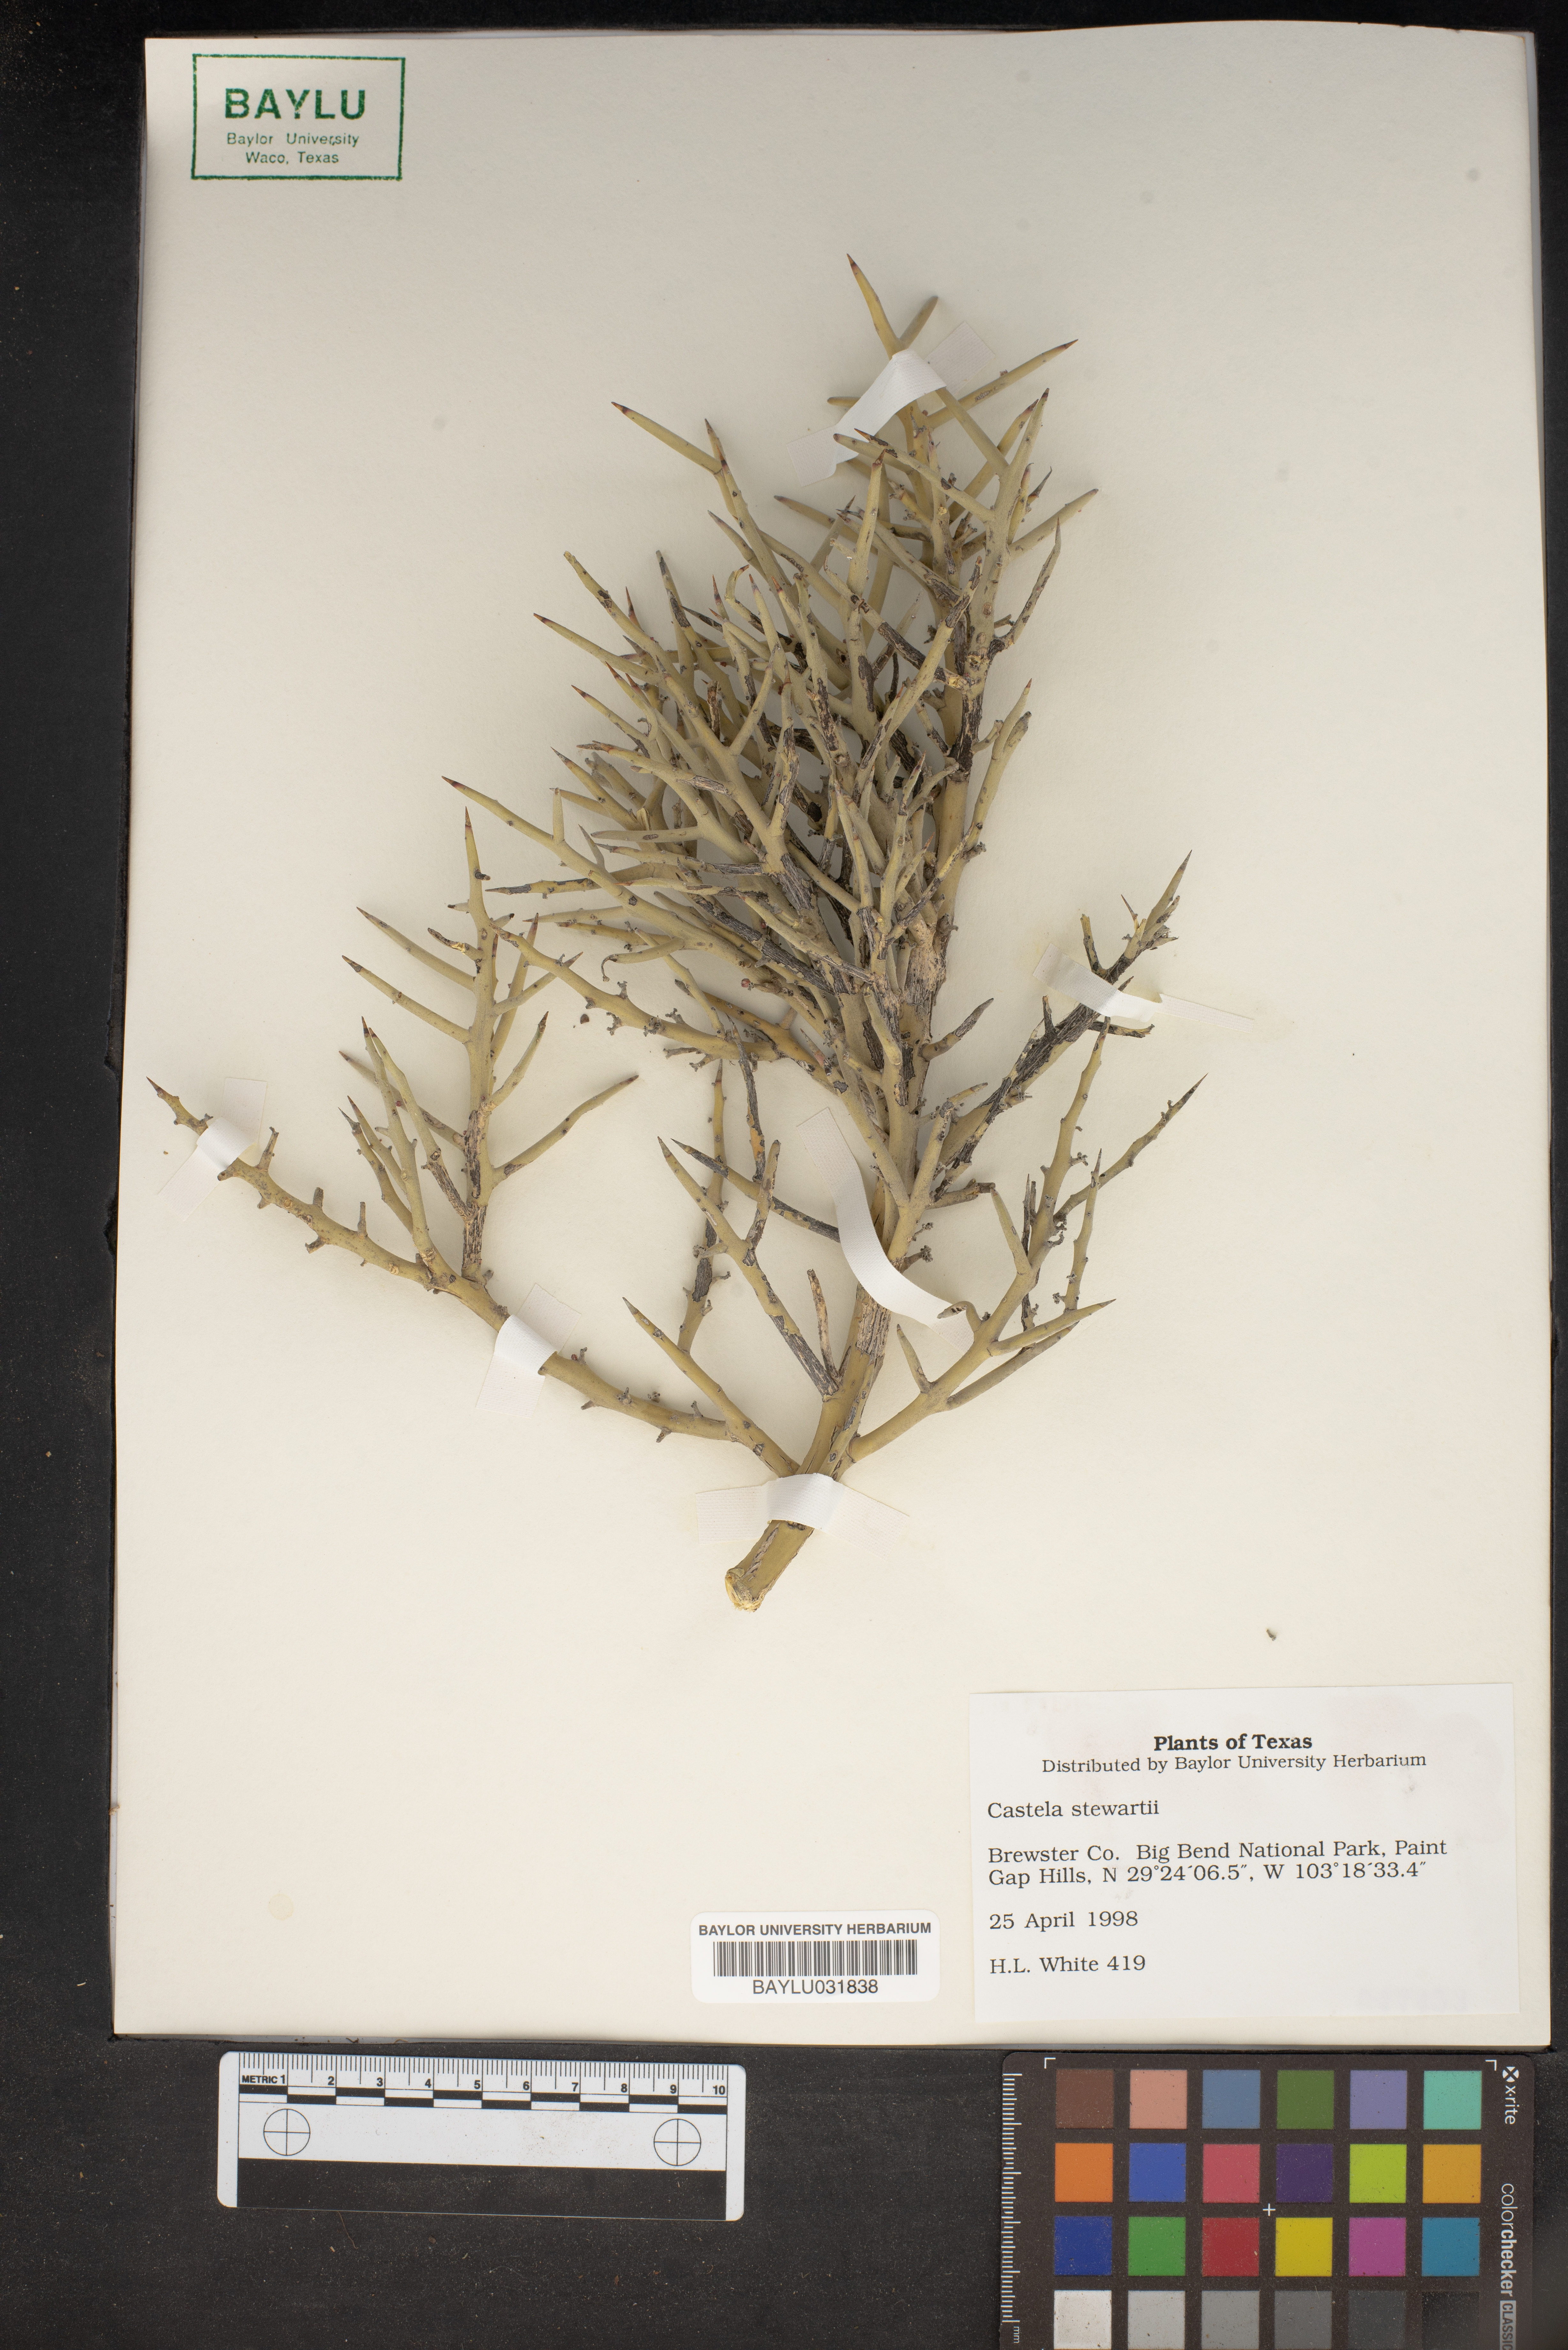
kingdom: Plantae
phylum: Tracheophyta
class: Magnoliopsida
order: Sapindales
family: Simaroubaceae
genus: Holacantha
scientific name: Holacantha stewartii
